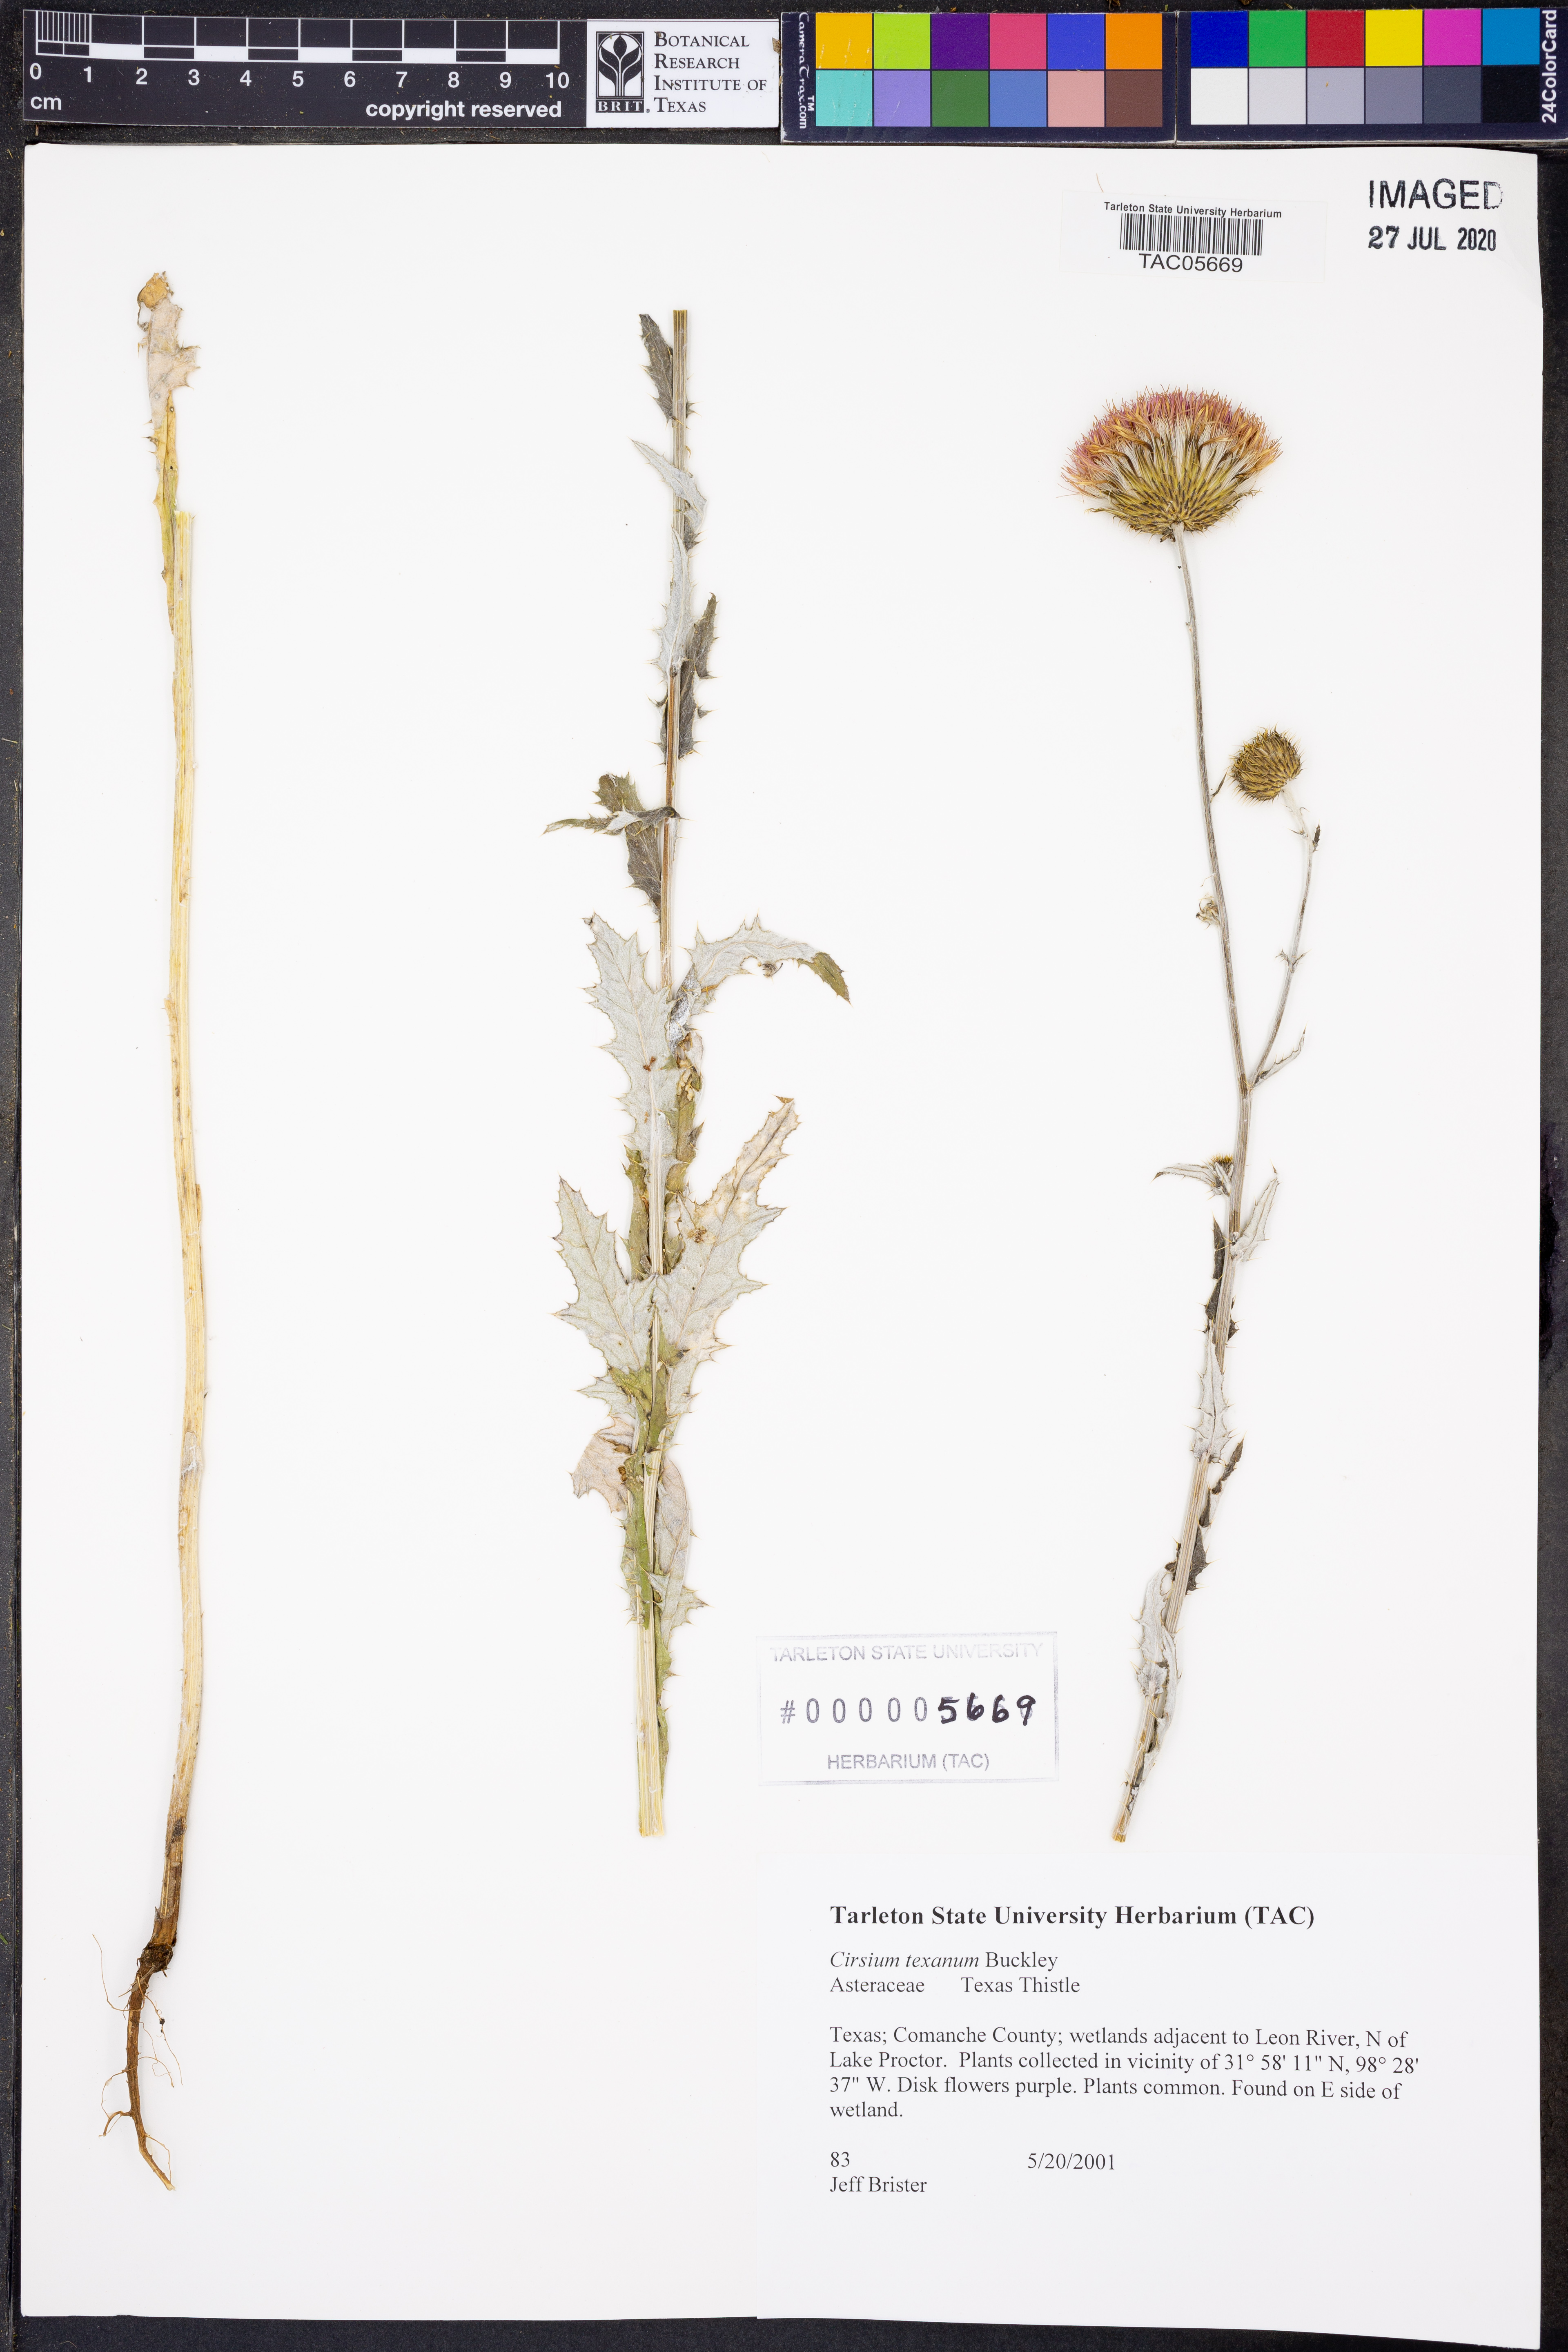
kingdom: Plantae
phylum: Tracheophyta
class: Magnoliopsida
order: Asterales
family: Asteraceae
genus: Cirsium
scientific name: Cirsium texanum
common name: Texas purple thistle
